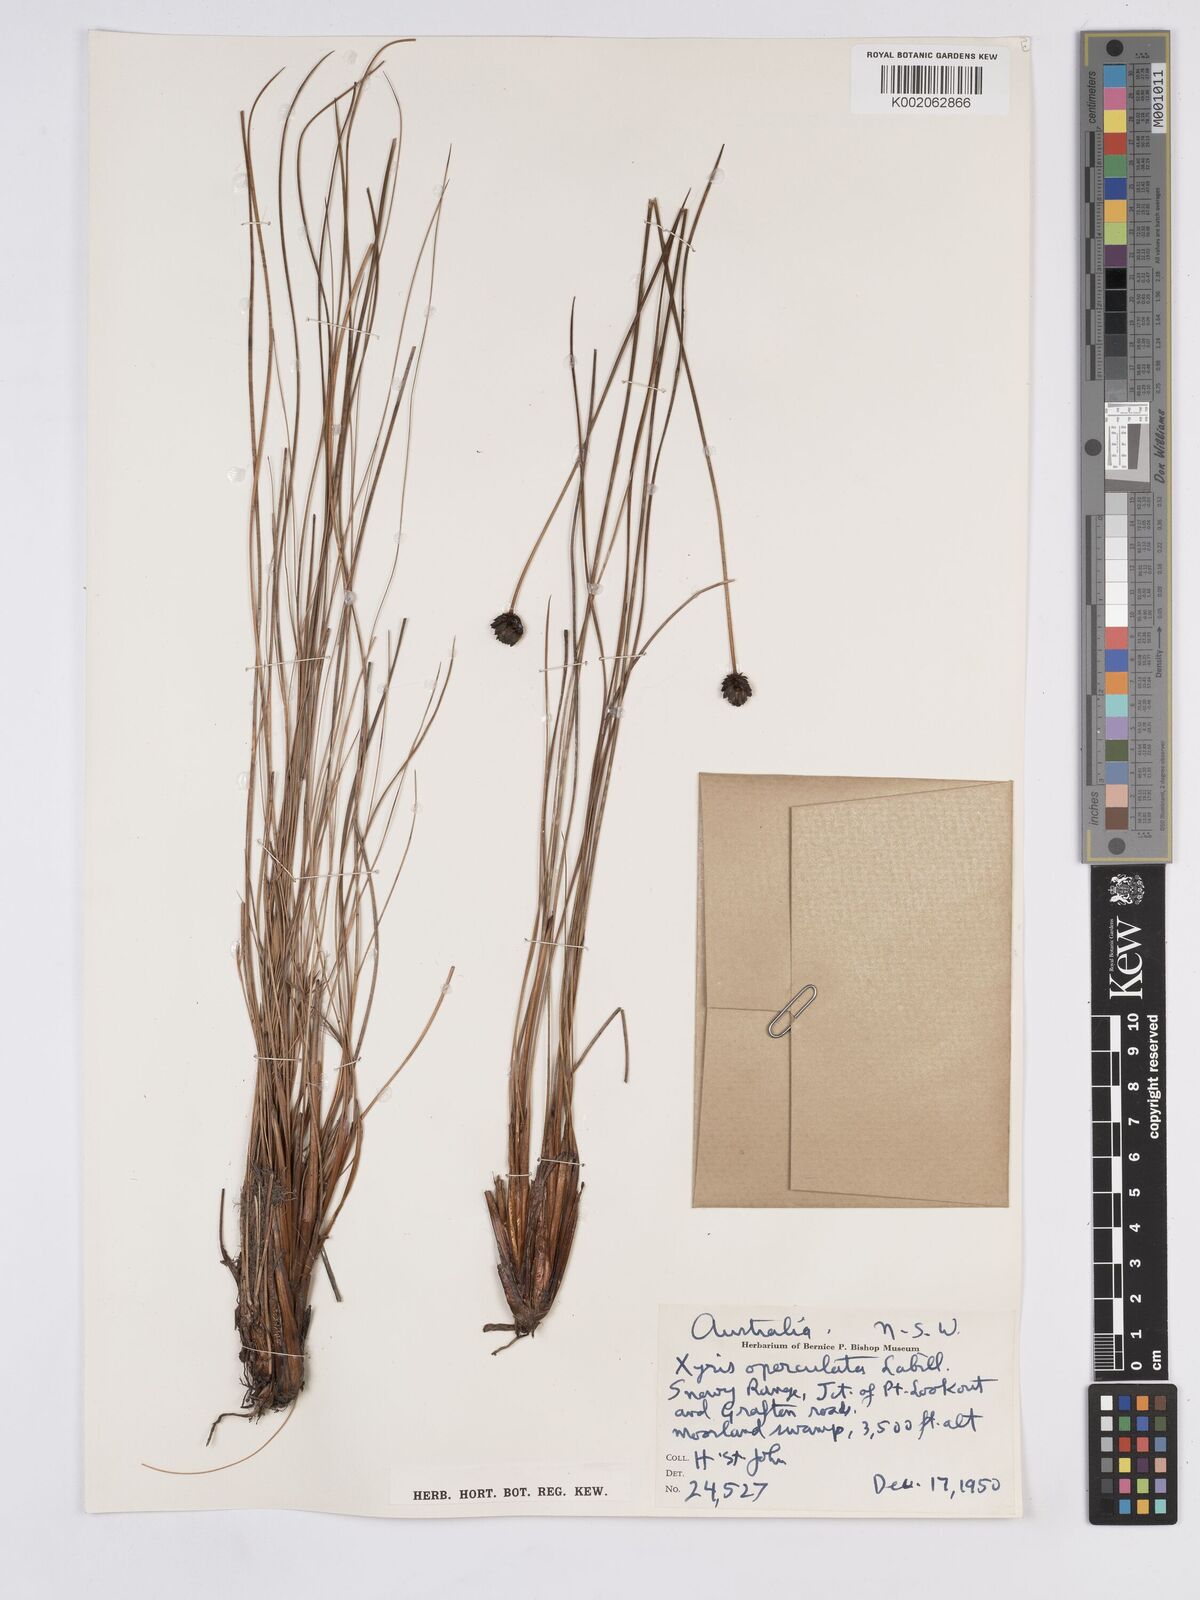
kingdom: Plantae
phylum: Tracheophyta
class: Liliopsida
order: Poales
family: Xyridaceae
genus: Xyris
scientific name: Xyris operculata
